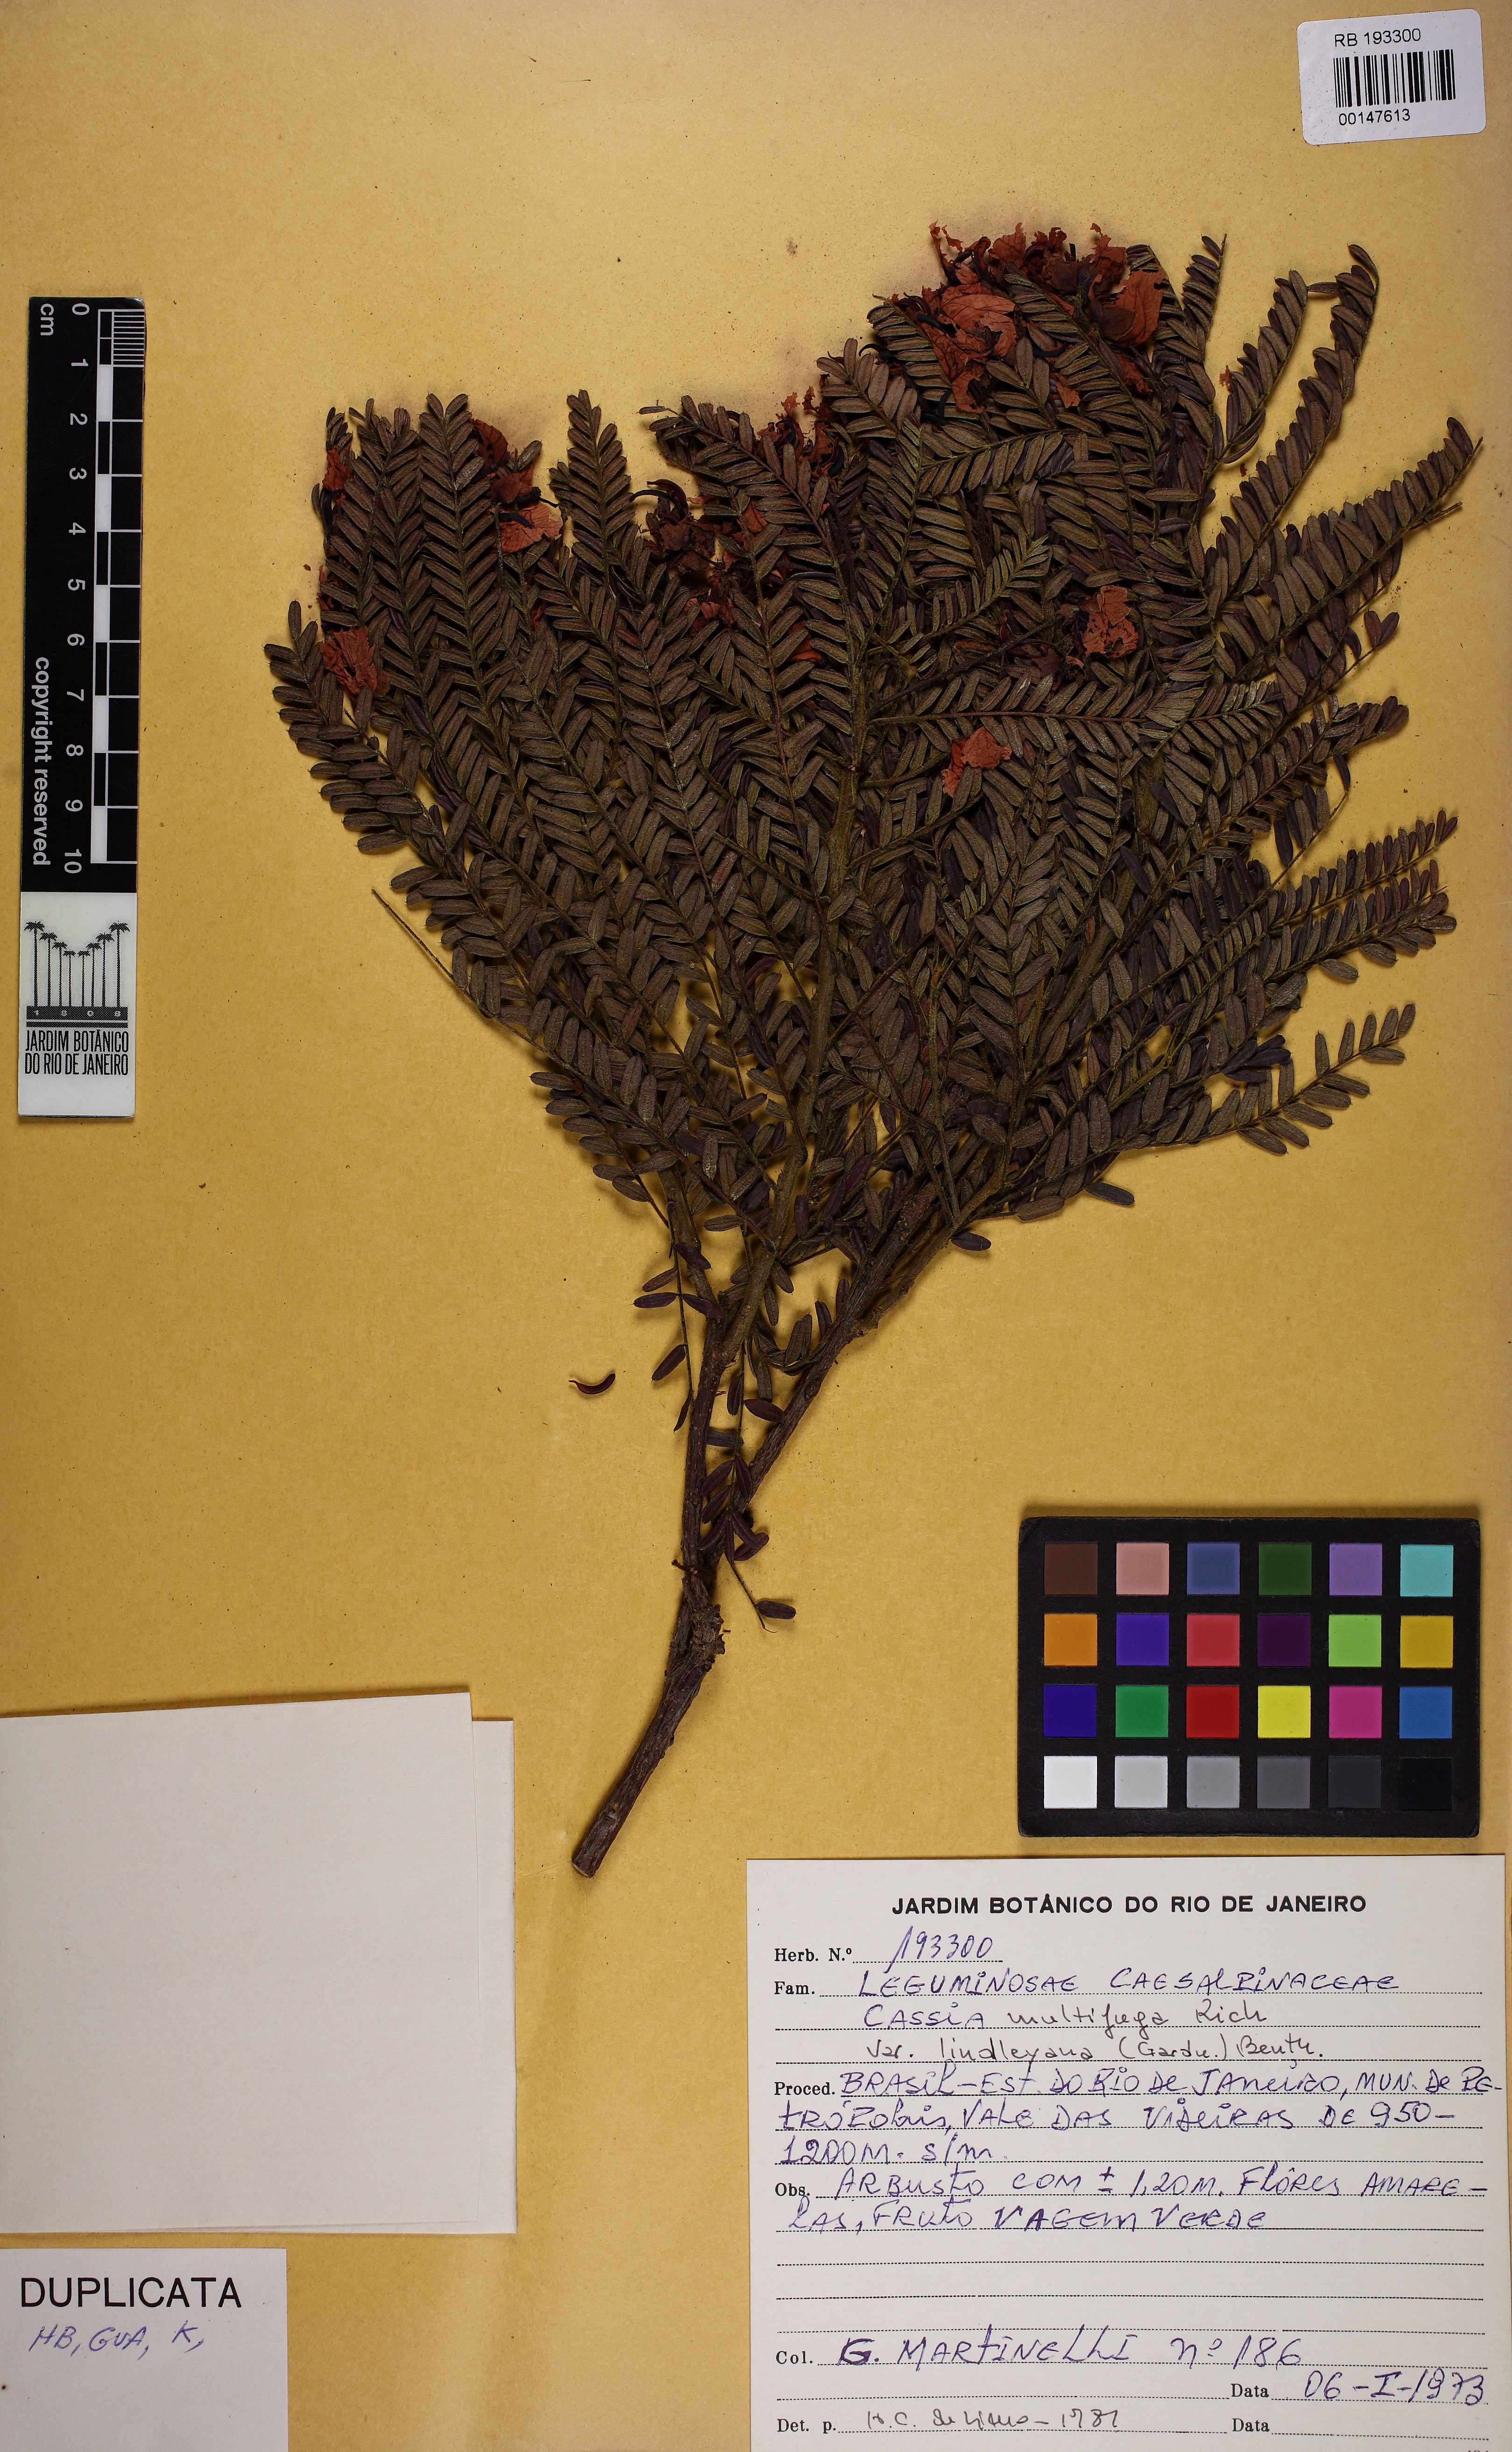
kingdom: Plantae
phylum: Tracheophyta
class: Magnoliopsida
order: Fabales
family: Fabaceae
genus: Senna
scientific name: Senna multijuga
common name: False sicklepod
